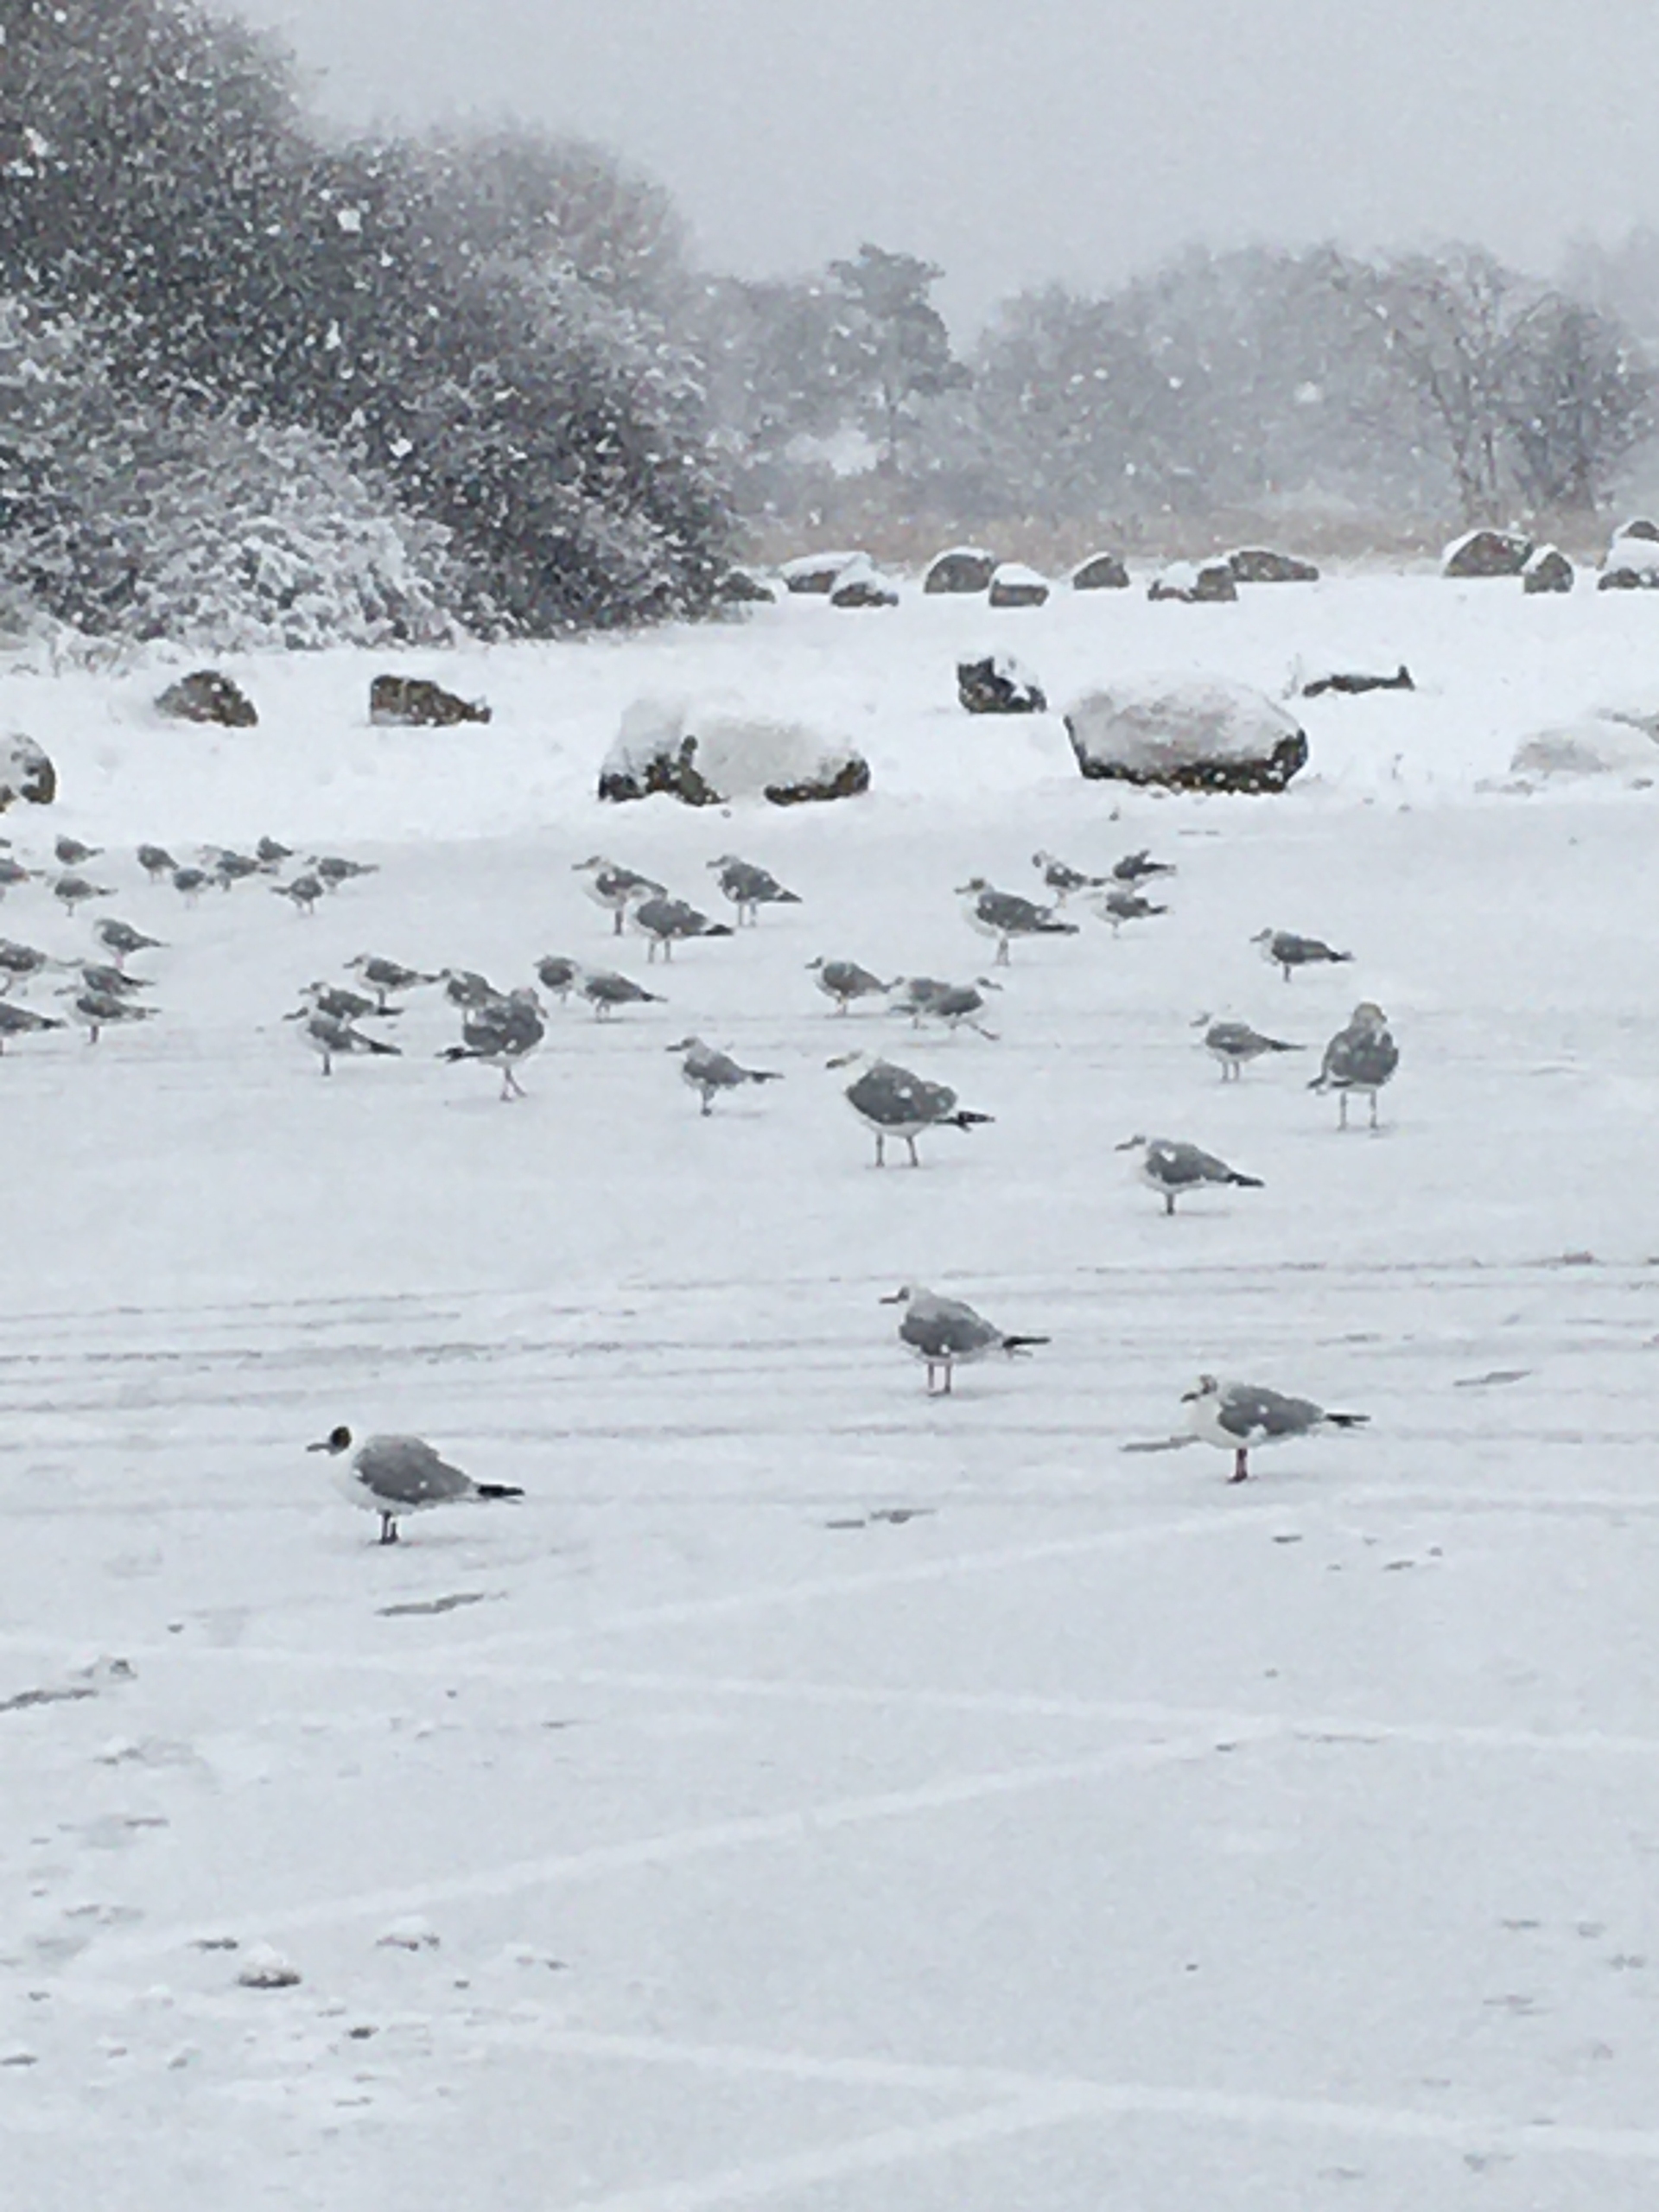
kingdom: Animalia
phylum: Chordata
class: Aves
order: Charadriiformes
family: Laridae
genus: Chroicocephalus
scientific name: Chroicocephalus ridibundus
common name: Hættemåge
